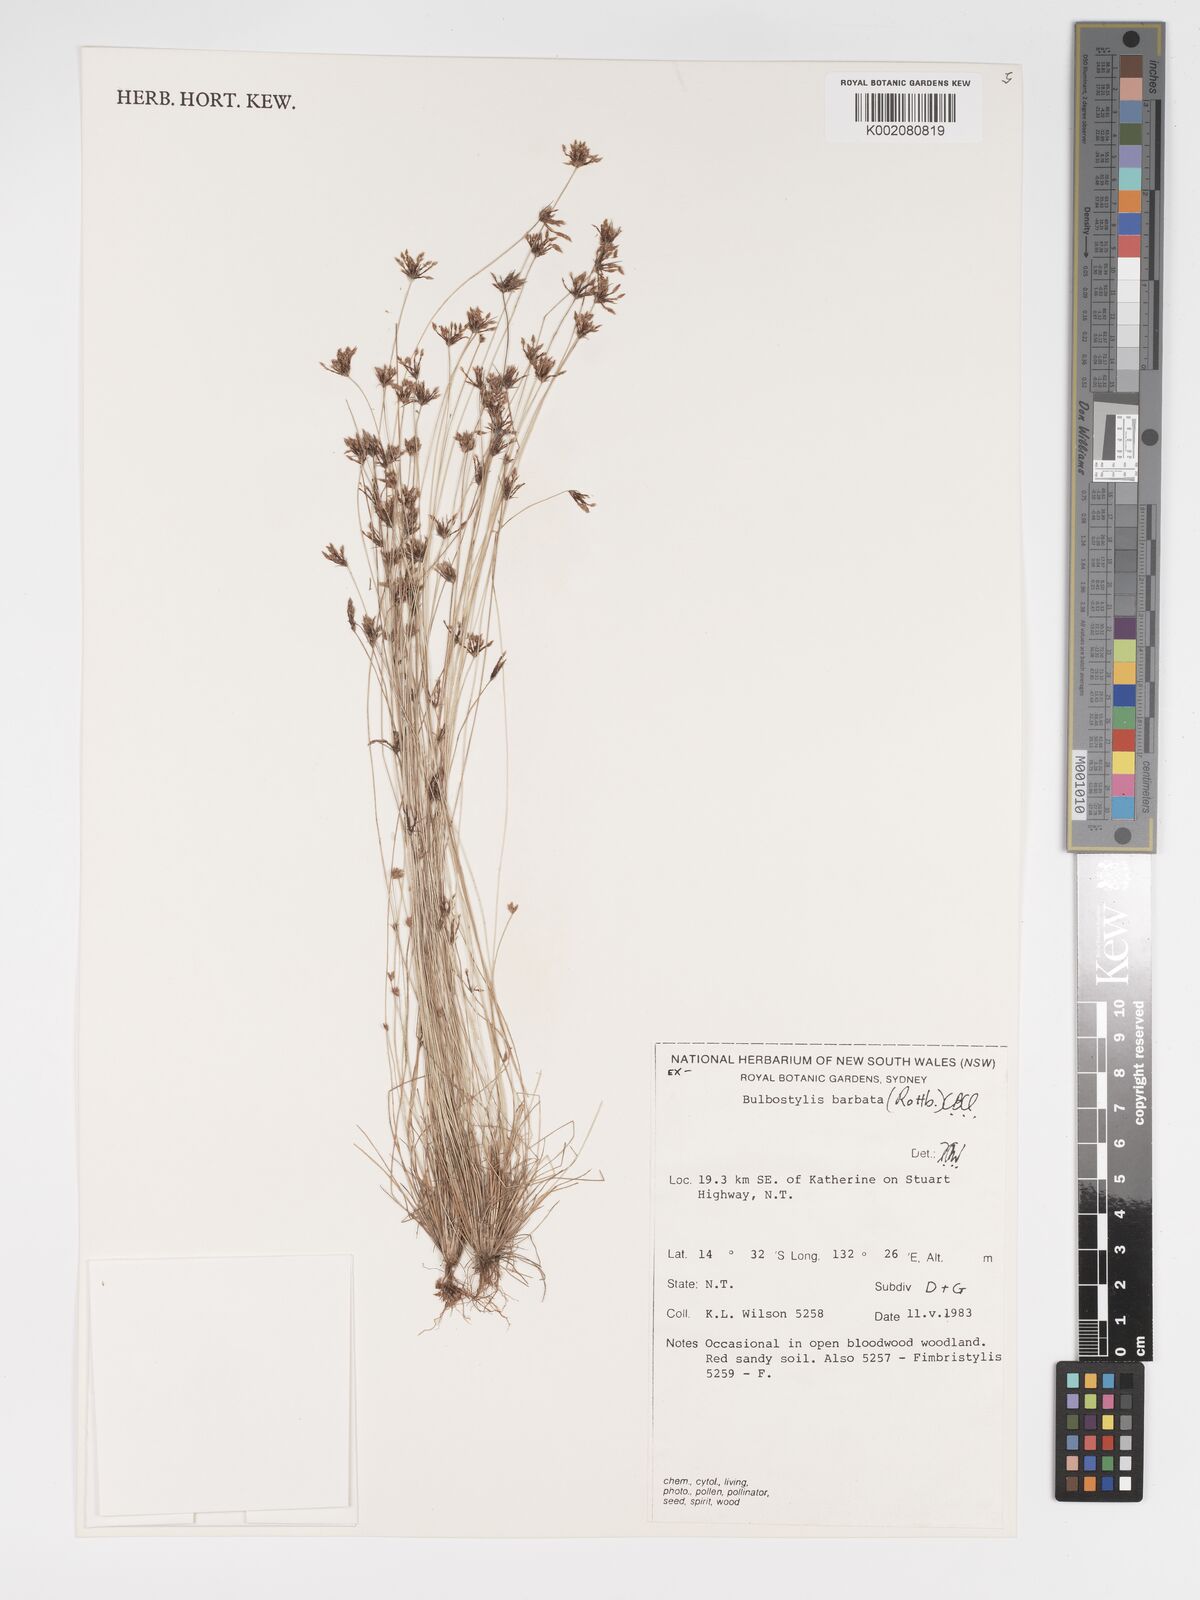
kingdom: Plantae
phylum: Tracheophyta
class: Liliopsida
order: Poales
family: Cyperaceae
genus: Bulbostylis
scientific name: Bulbostylis barbata
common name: Watergrass
